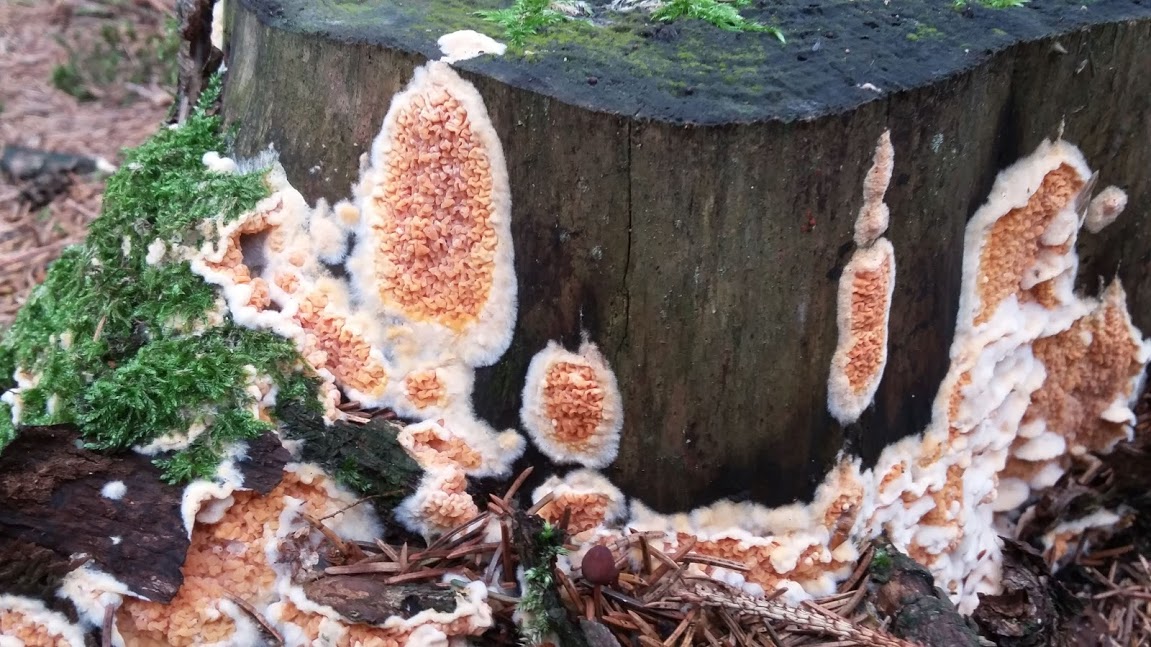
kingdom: Fungi
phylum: Basidiomycota
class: Agaricomycetes
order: Boletales
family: Hygrophoropsidaceae
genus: Leucogyrophana
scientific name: Leucogyrophana
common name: hussvamp
